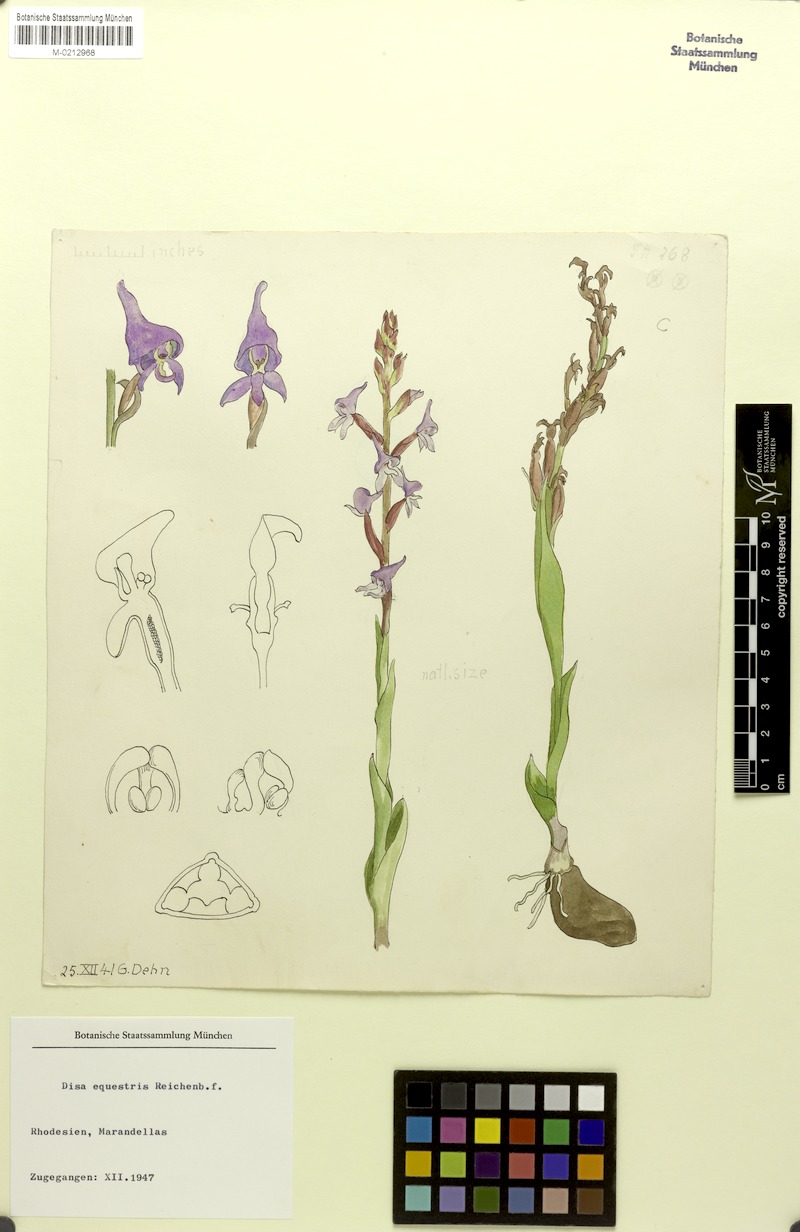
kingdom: Plantae
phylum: Tracheophyta
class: Liliopsida
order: Asparagales
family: Orchidaceae
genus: Disa
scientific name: Disa equestris
